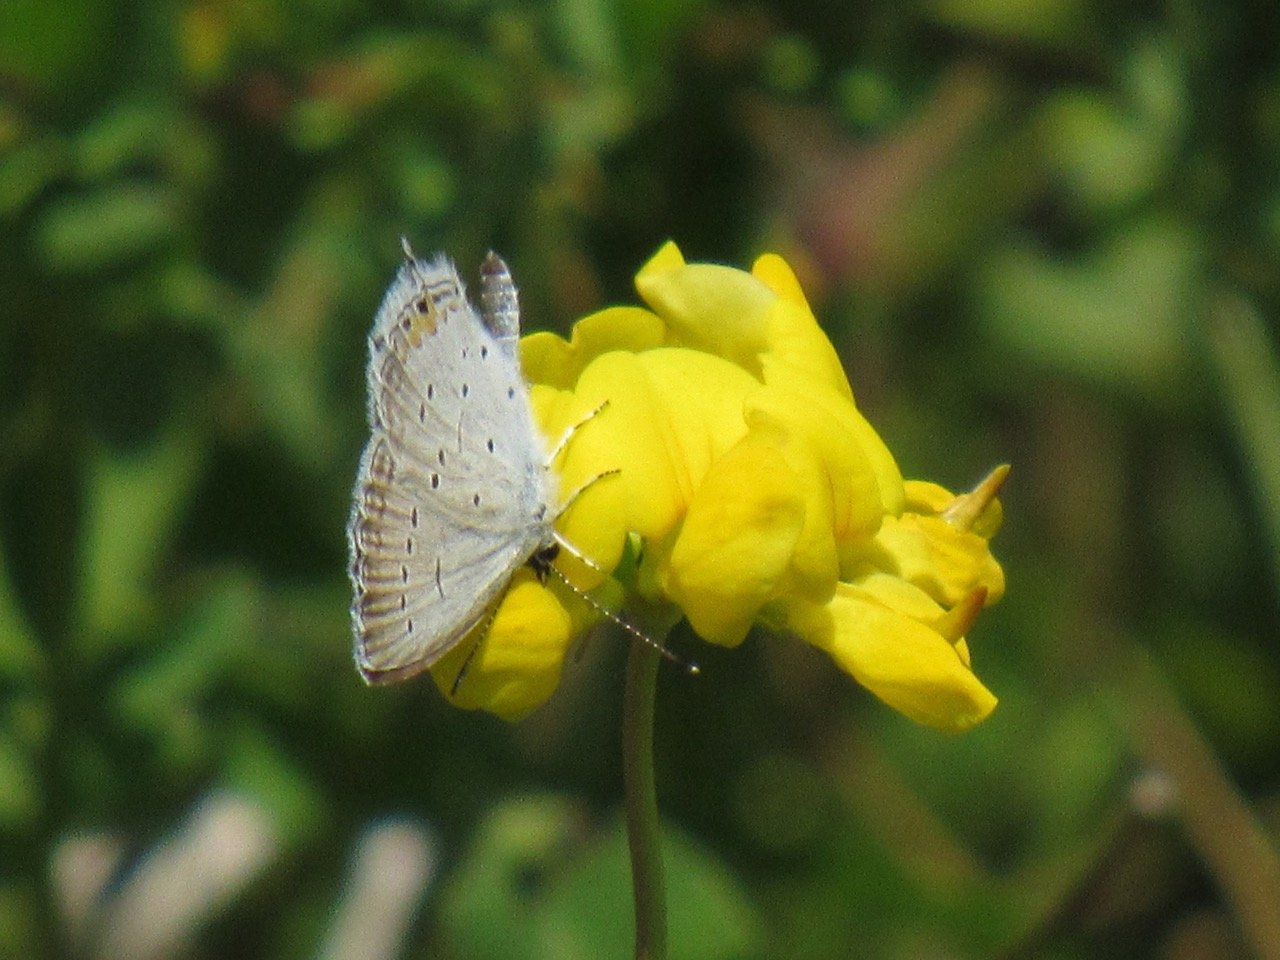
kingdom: Animalia
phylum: Arthropoda
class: Insecta
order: Lepidoptera
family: Lycaenidae
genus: Elkalyce
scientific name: Elkalyce comyntas
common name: Eastern Tailed-Blue
